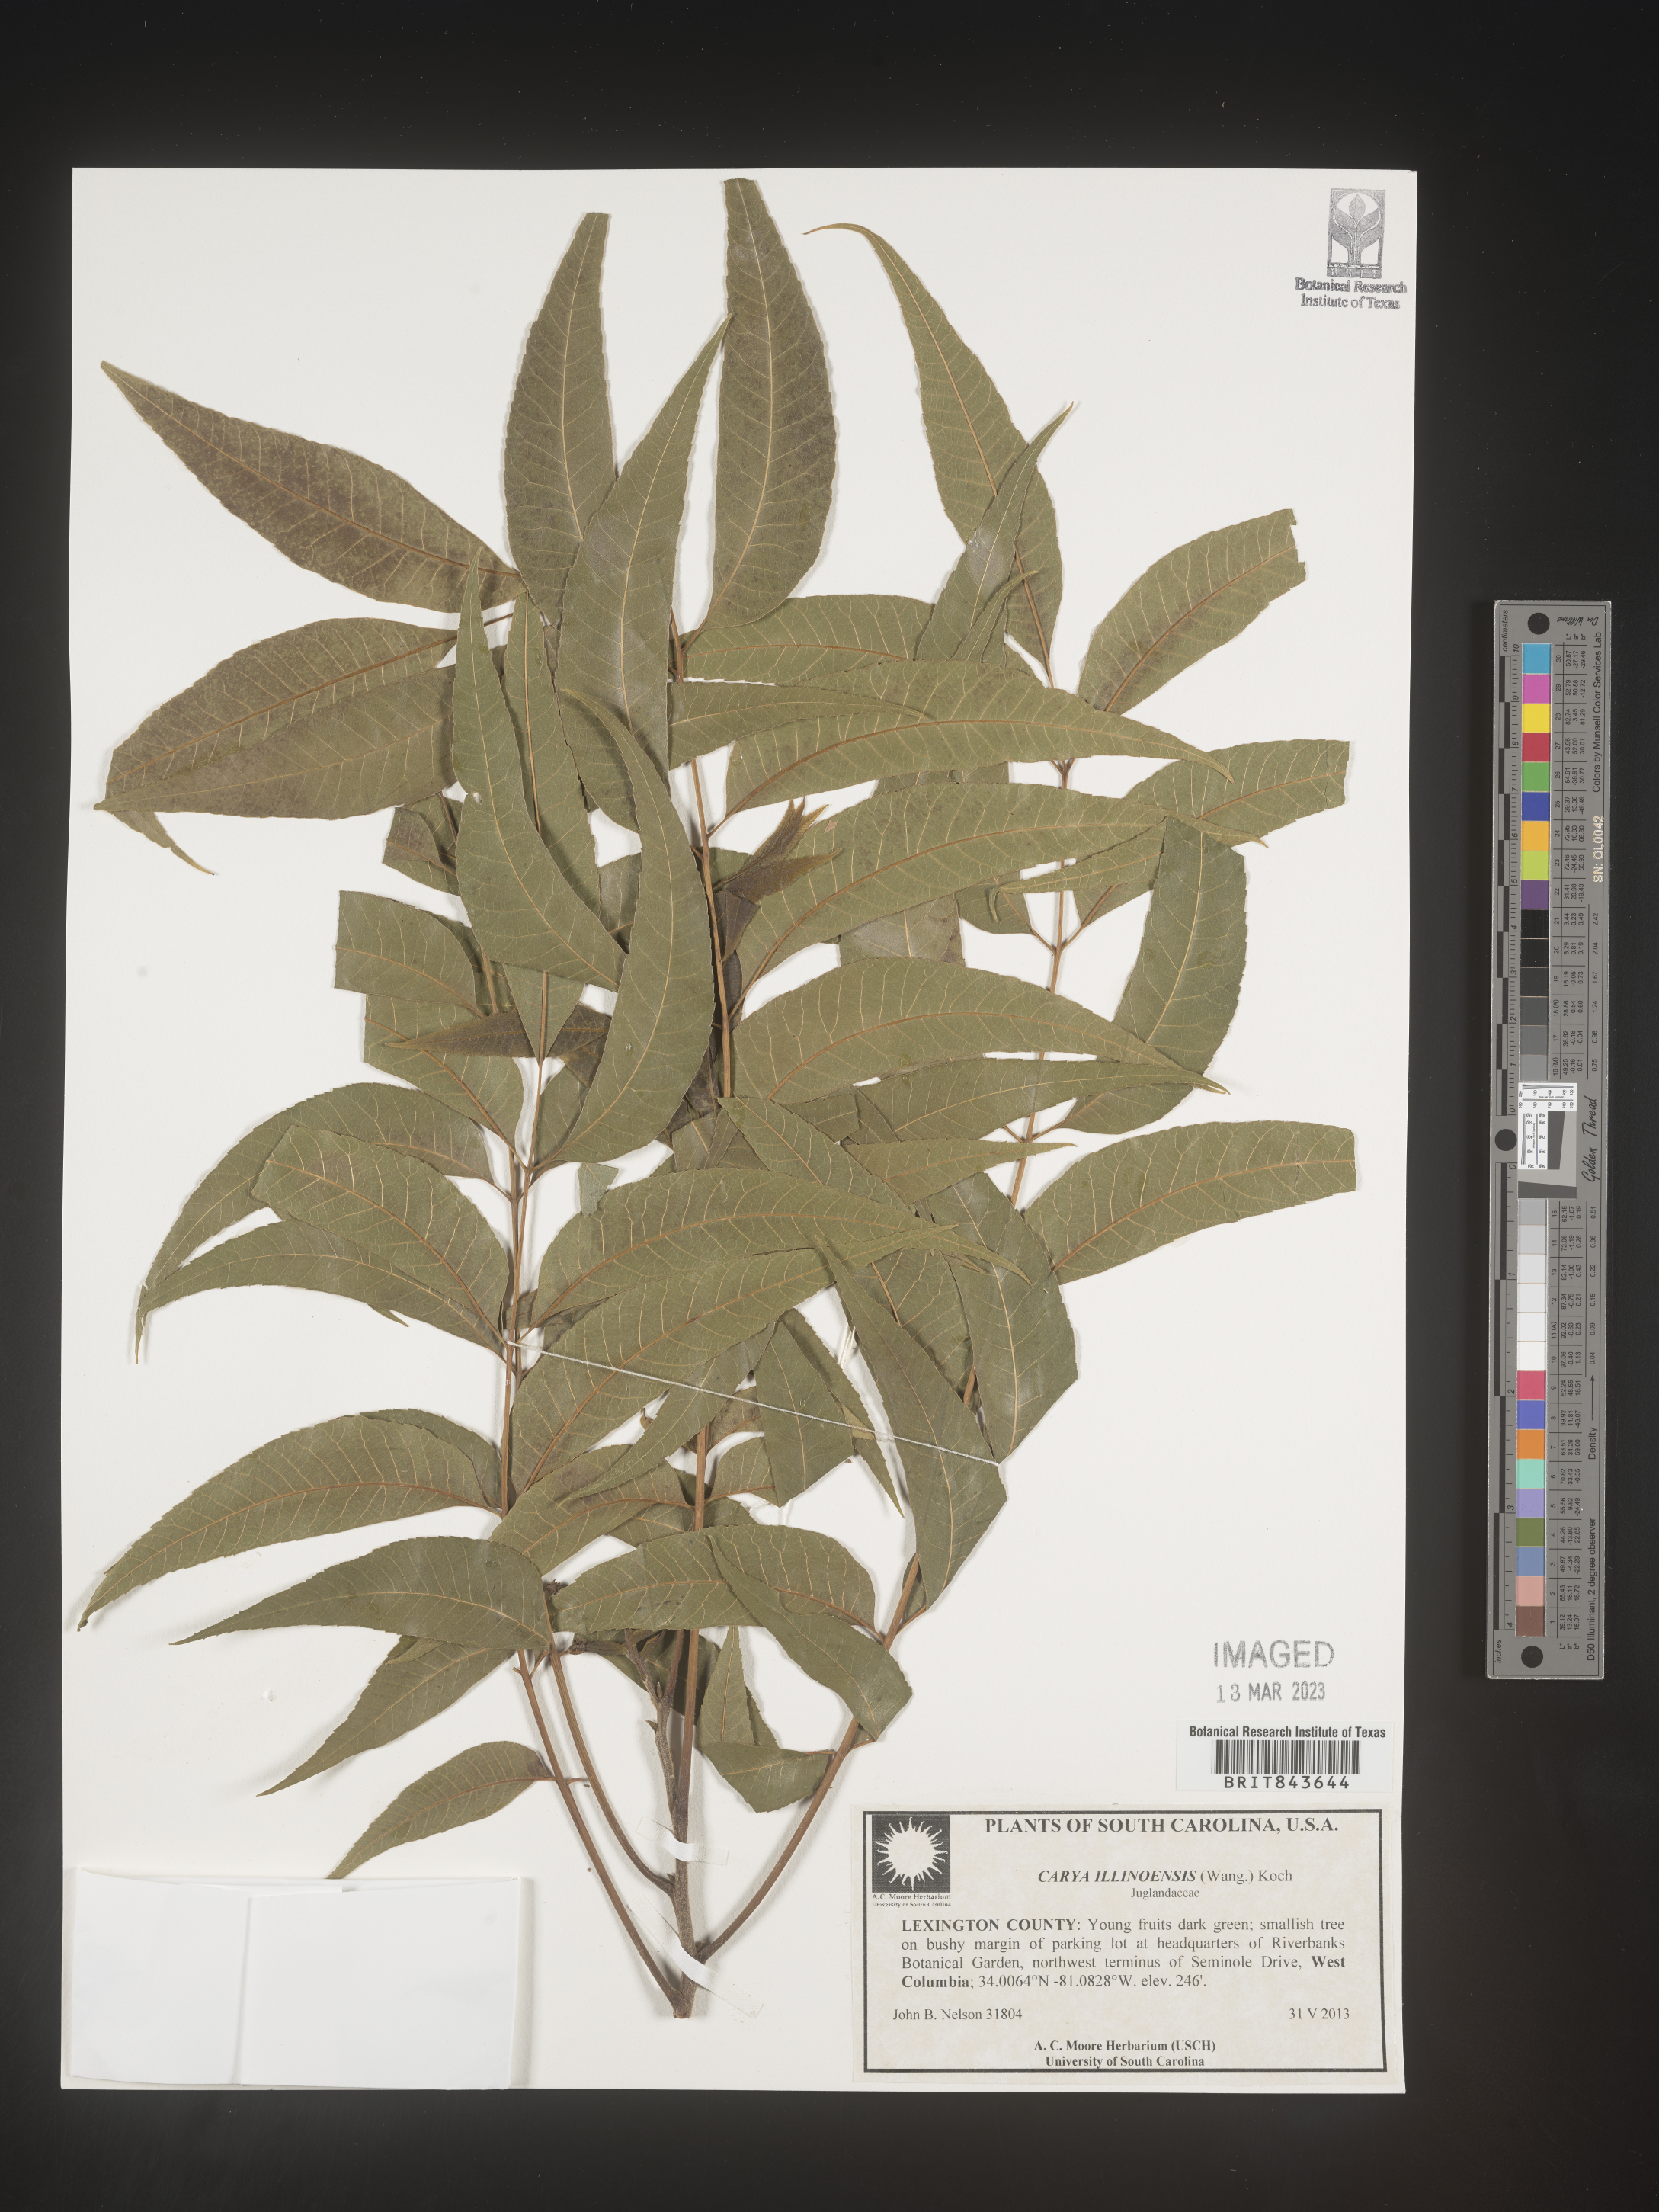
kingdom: Plantae
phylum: Tracheophyta
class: Magnoliopsida
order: Fagales
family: Juglandaceae
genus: Carya
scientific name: Carya illinoinensis
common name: Pecan
